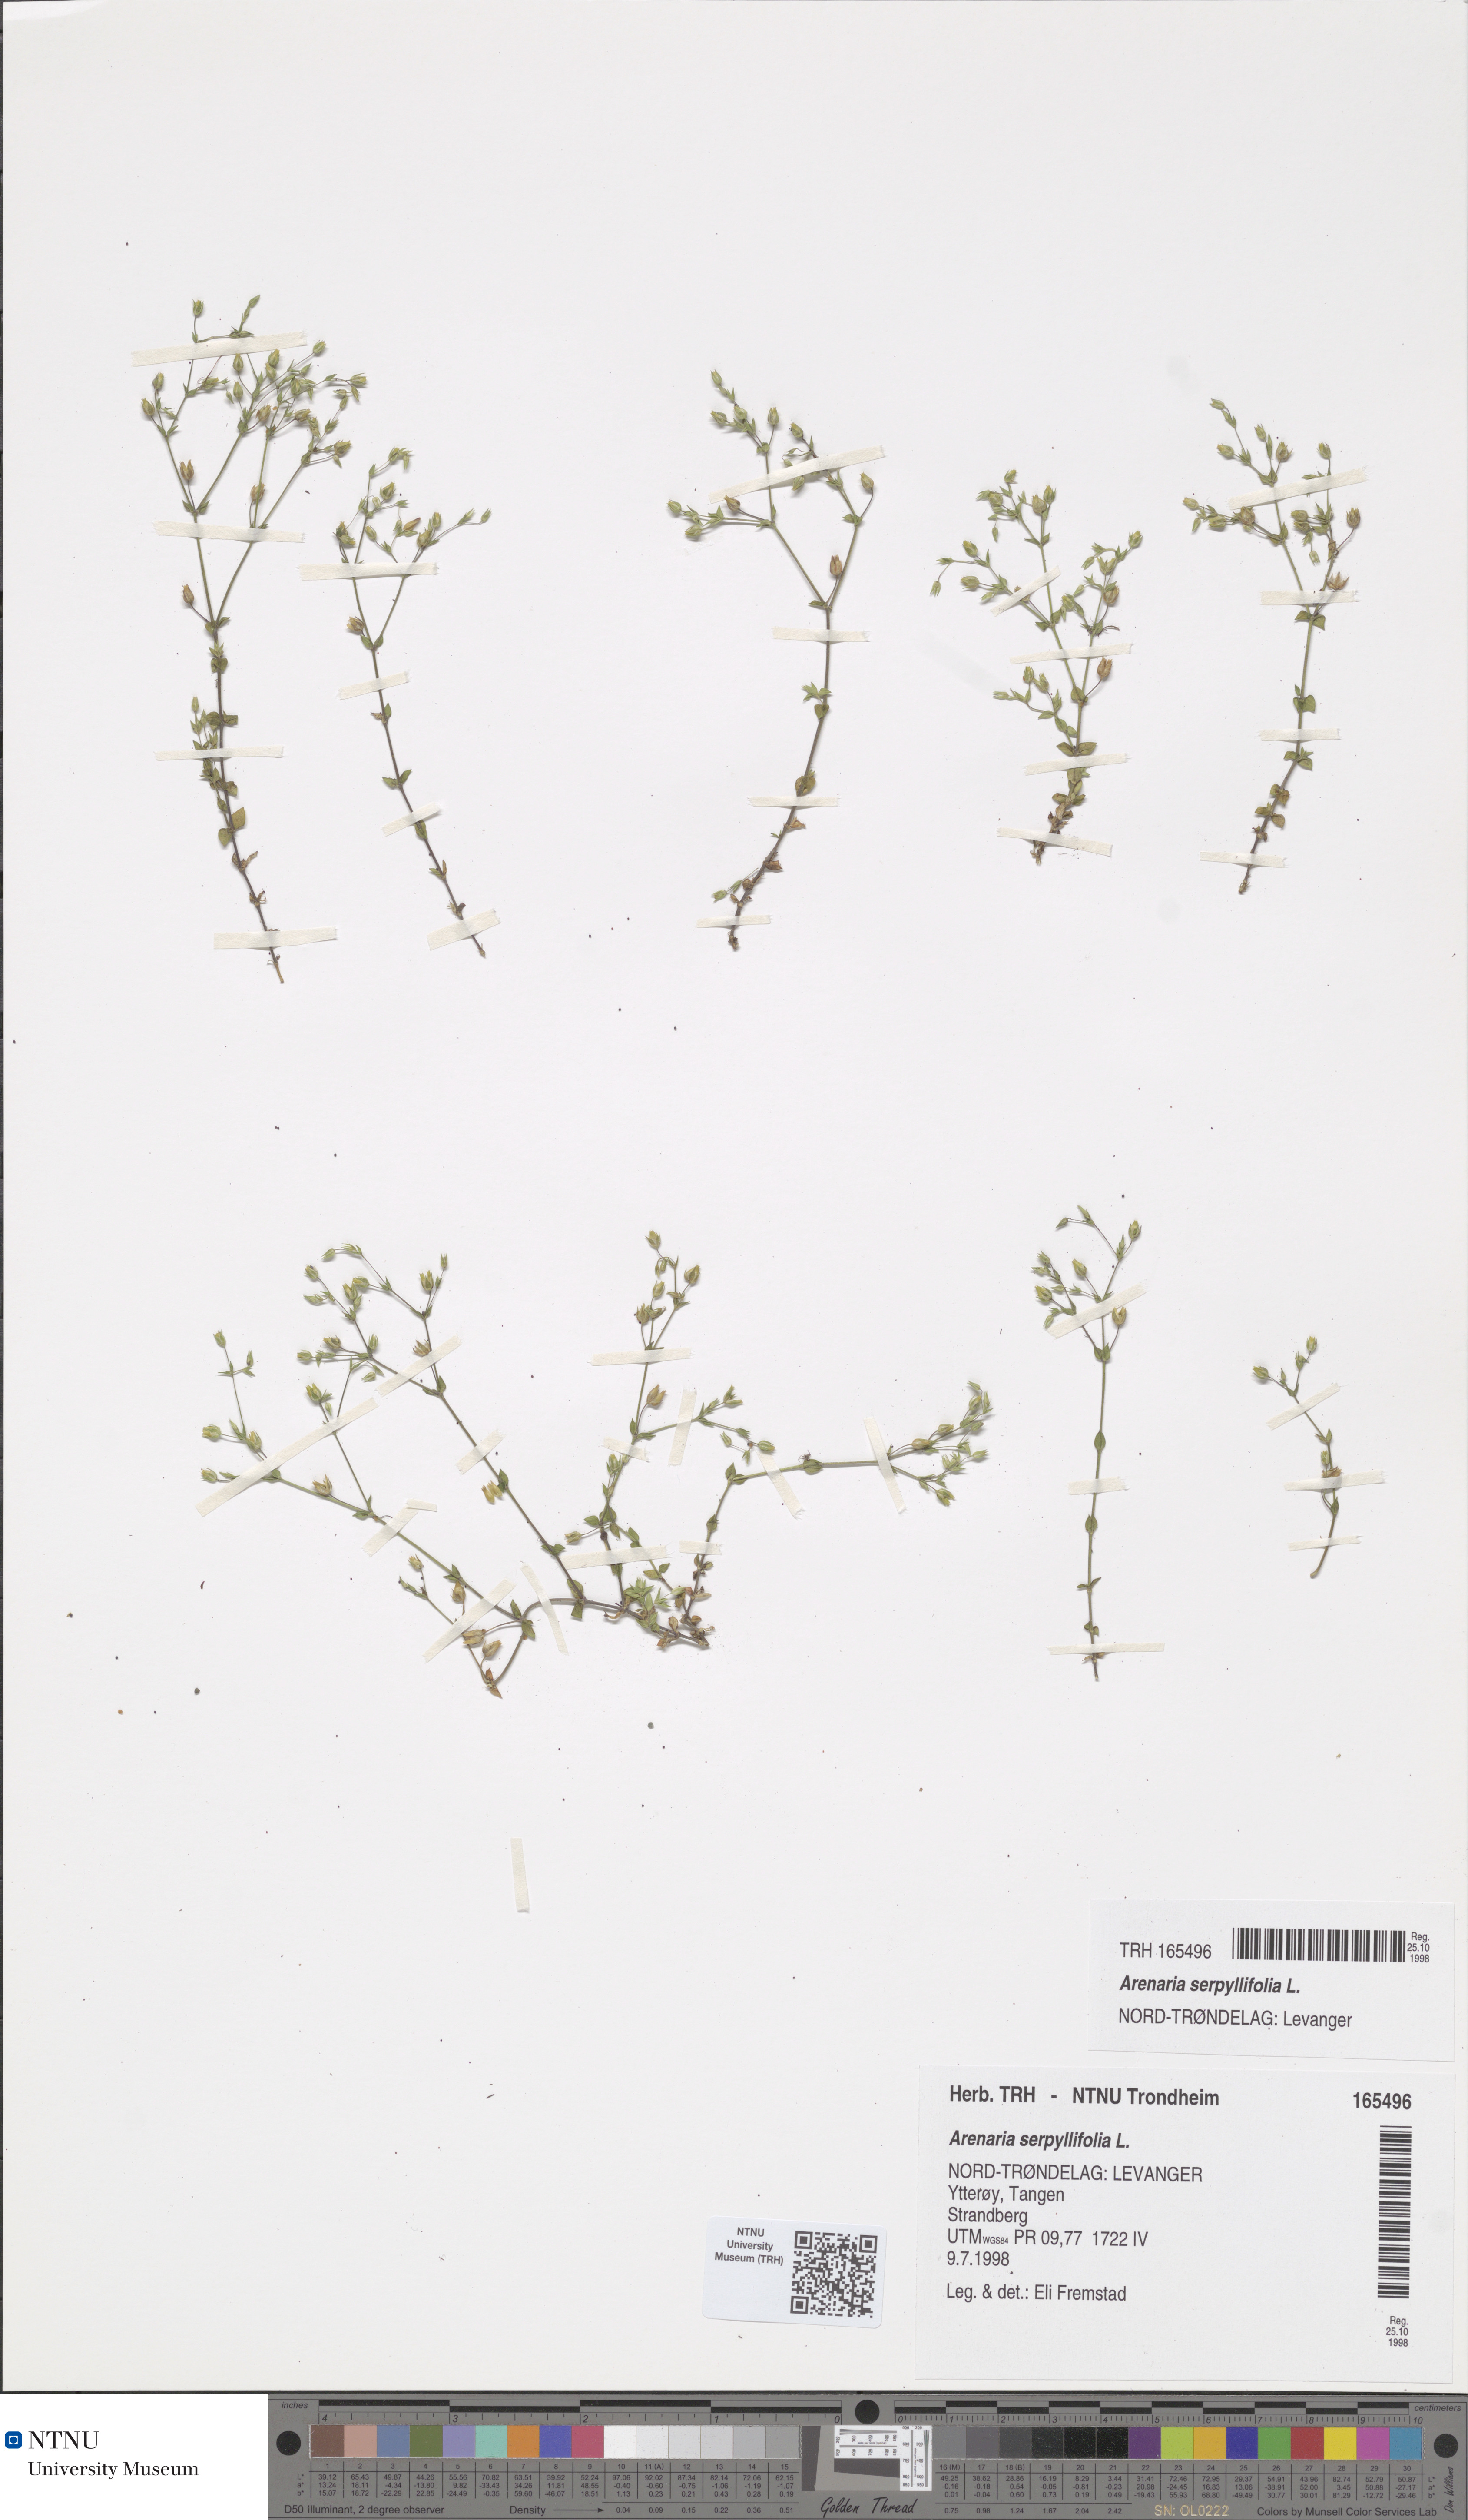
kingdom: Plantae
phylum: Tracheophyta
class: Magnoliopsida
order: Caryophyllales
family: Caryophyllaceae
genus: Arenaria
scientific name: Arenaria serpyllifolia
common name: Thyme-leaved sandwort
